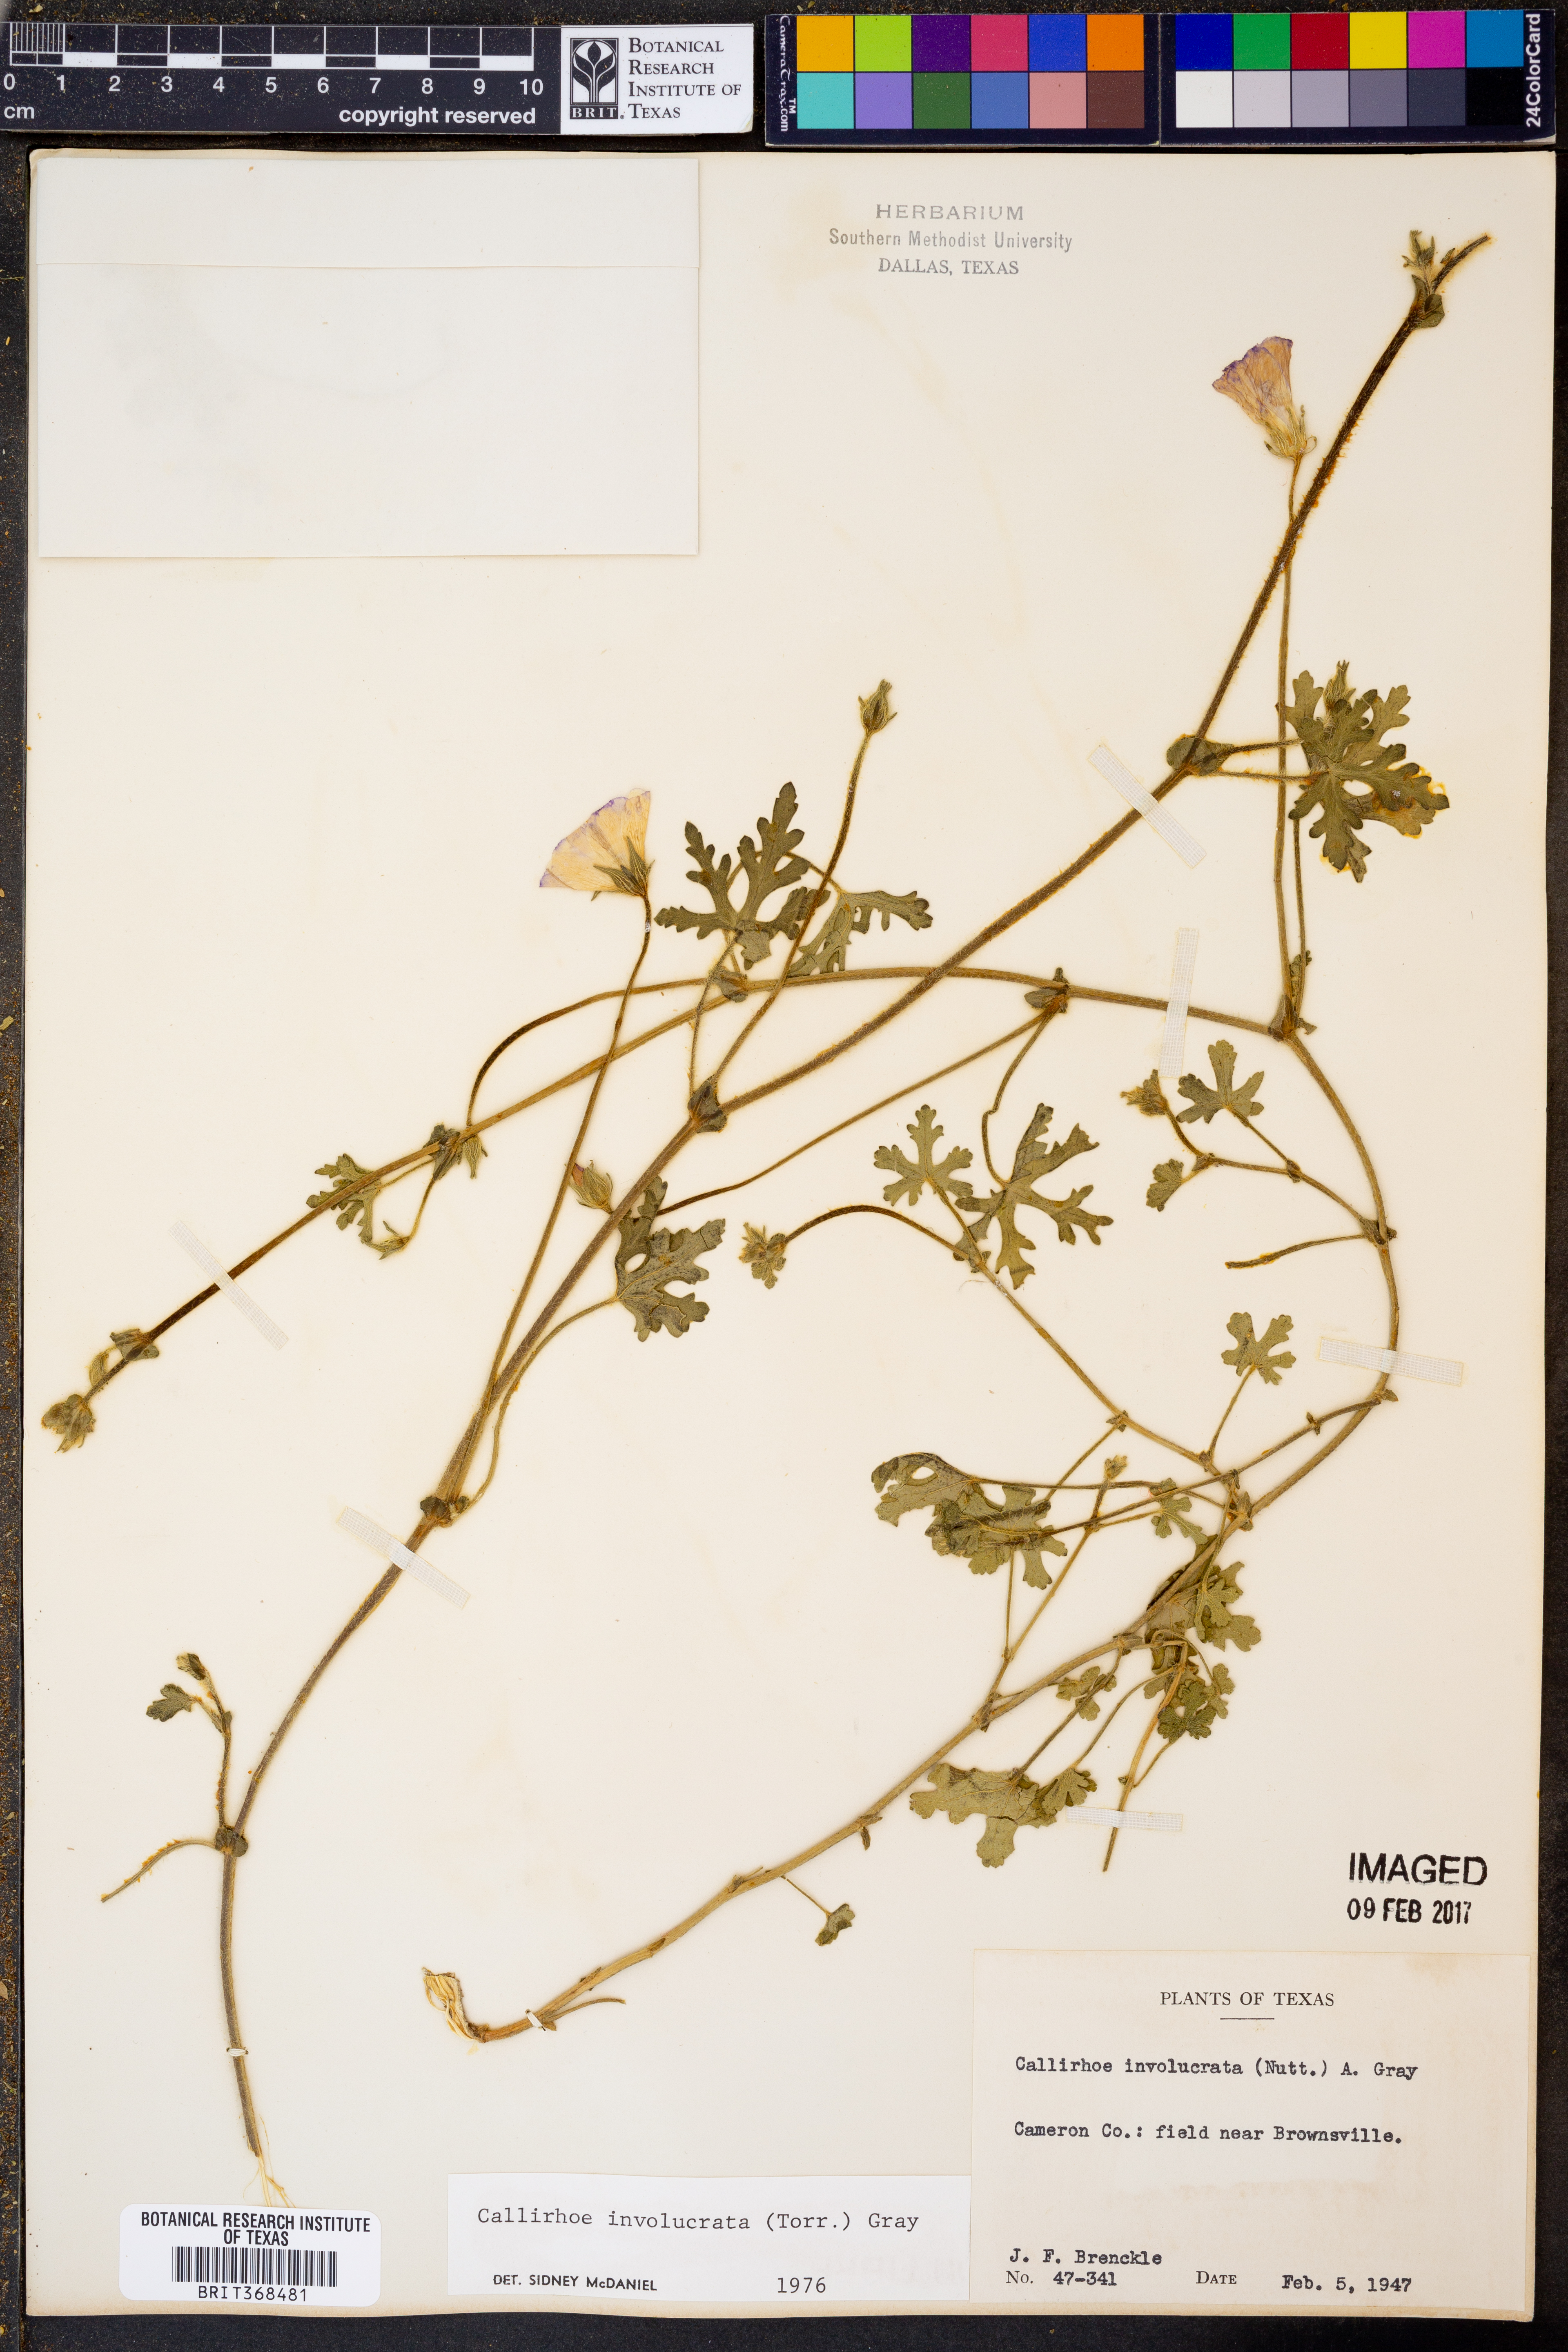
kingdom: Plantae
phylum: Tracheophyta
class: Magnoliopsida
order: Malvales
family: Malvaceae
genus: Callirhoe
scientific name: Callirhoe involucrata
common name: Purple poppy-mallow
